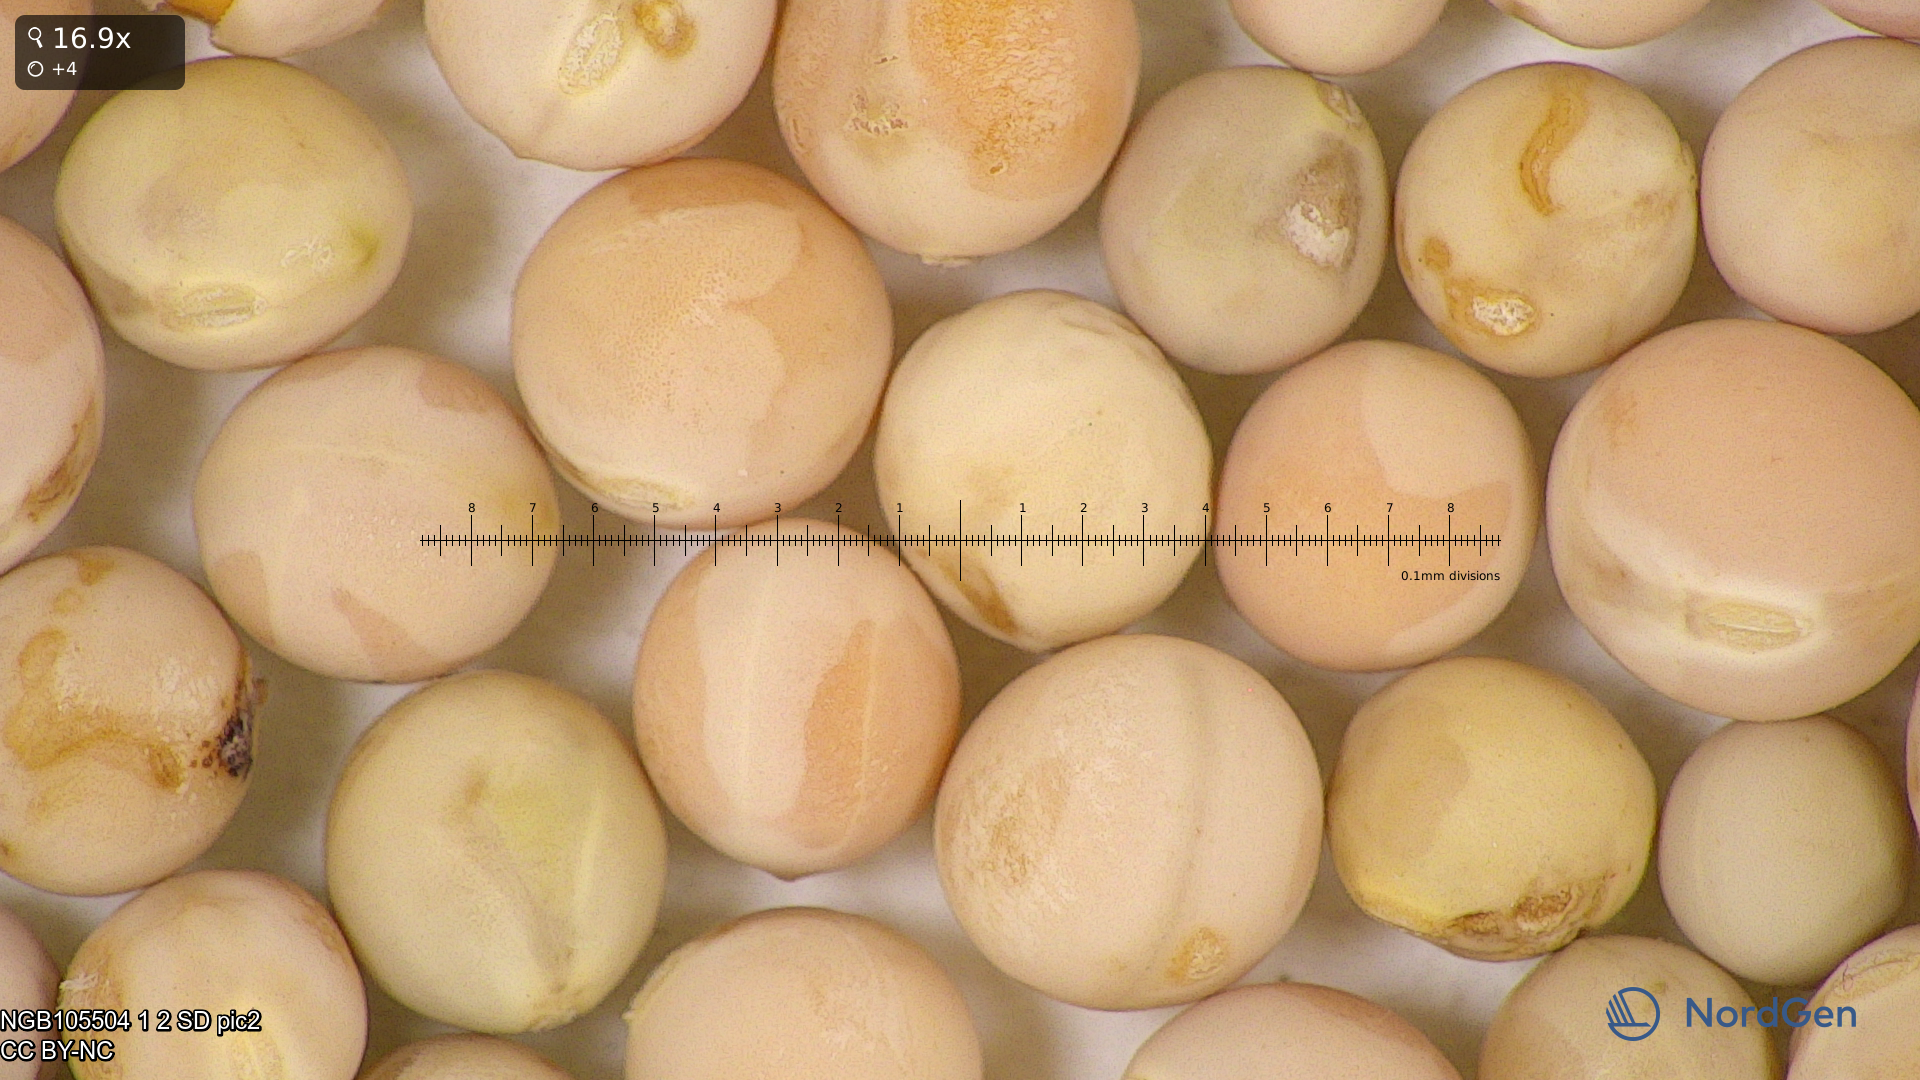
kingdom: Plantae
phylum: Tracheophyta
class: Magnoliopsida
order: Fabales
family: Fabaceae
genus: Lathyrus
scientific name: Lathyrus oleraceus
